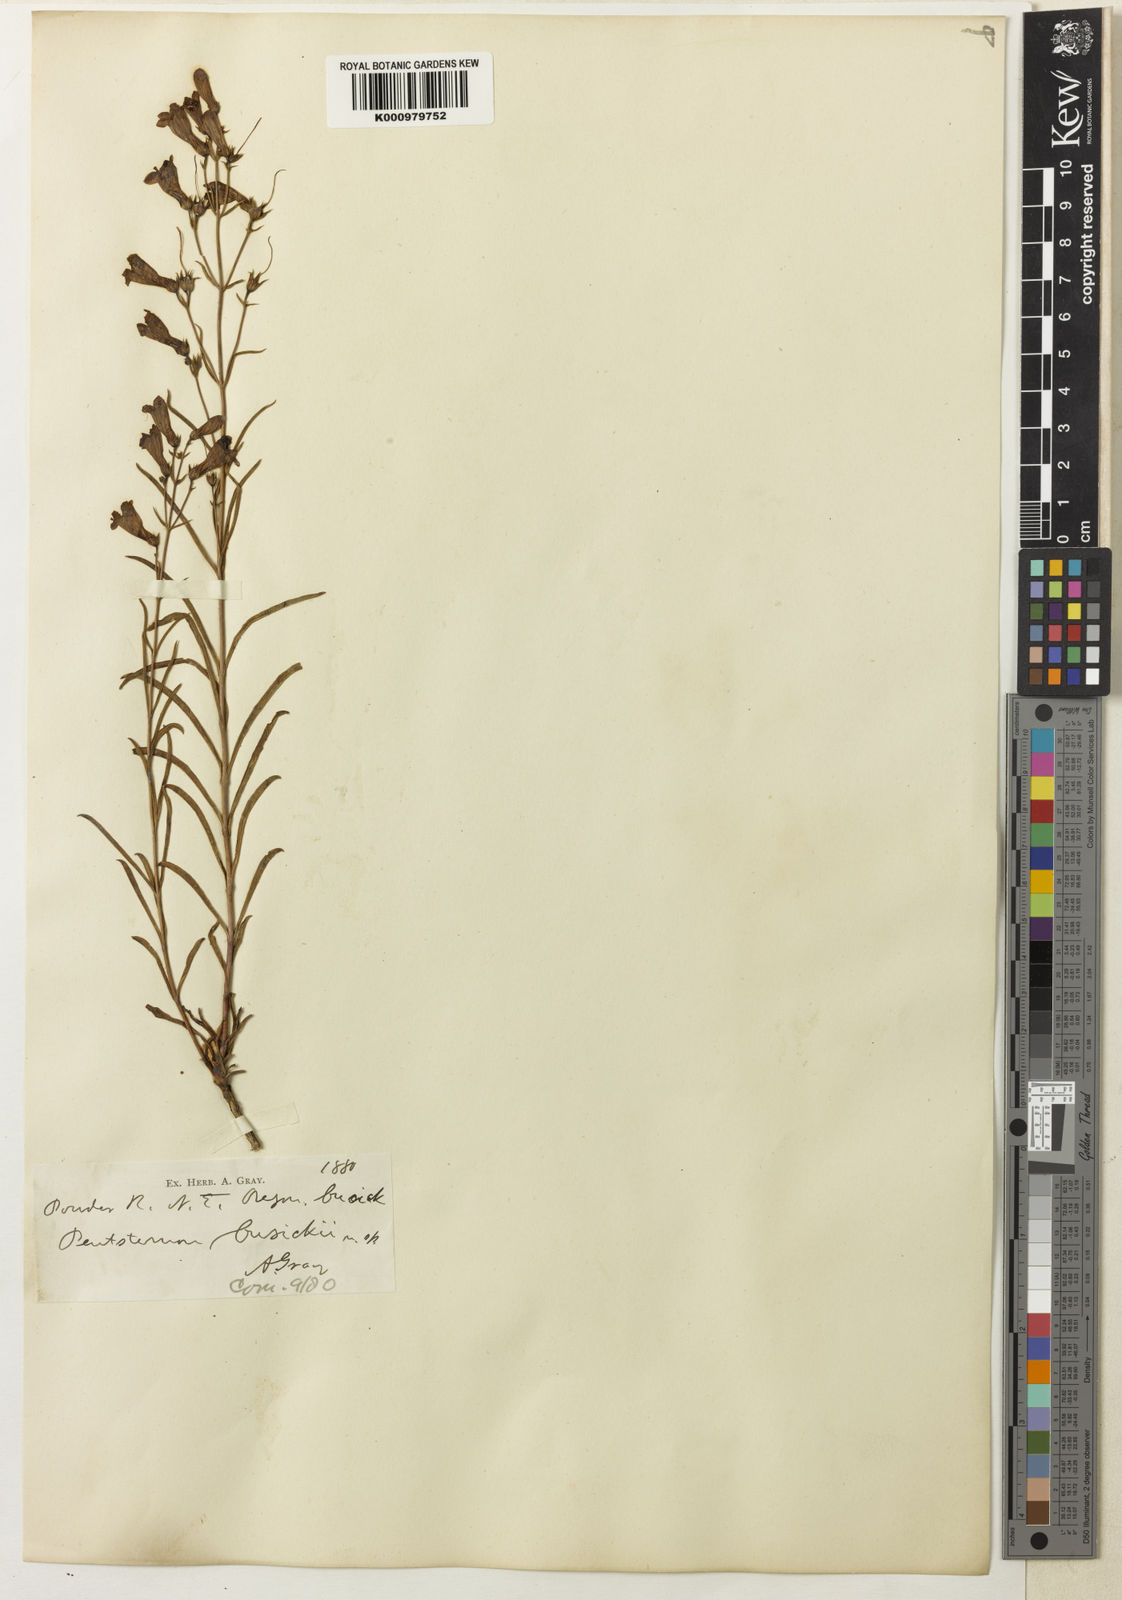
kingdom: Plantae
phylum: Tracheophyta
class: Magnoliopsida
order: Lamiales
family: Plantaginaceae
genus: Penstemon
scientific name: Penstemon cusickii
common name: Cusick's penstemon
